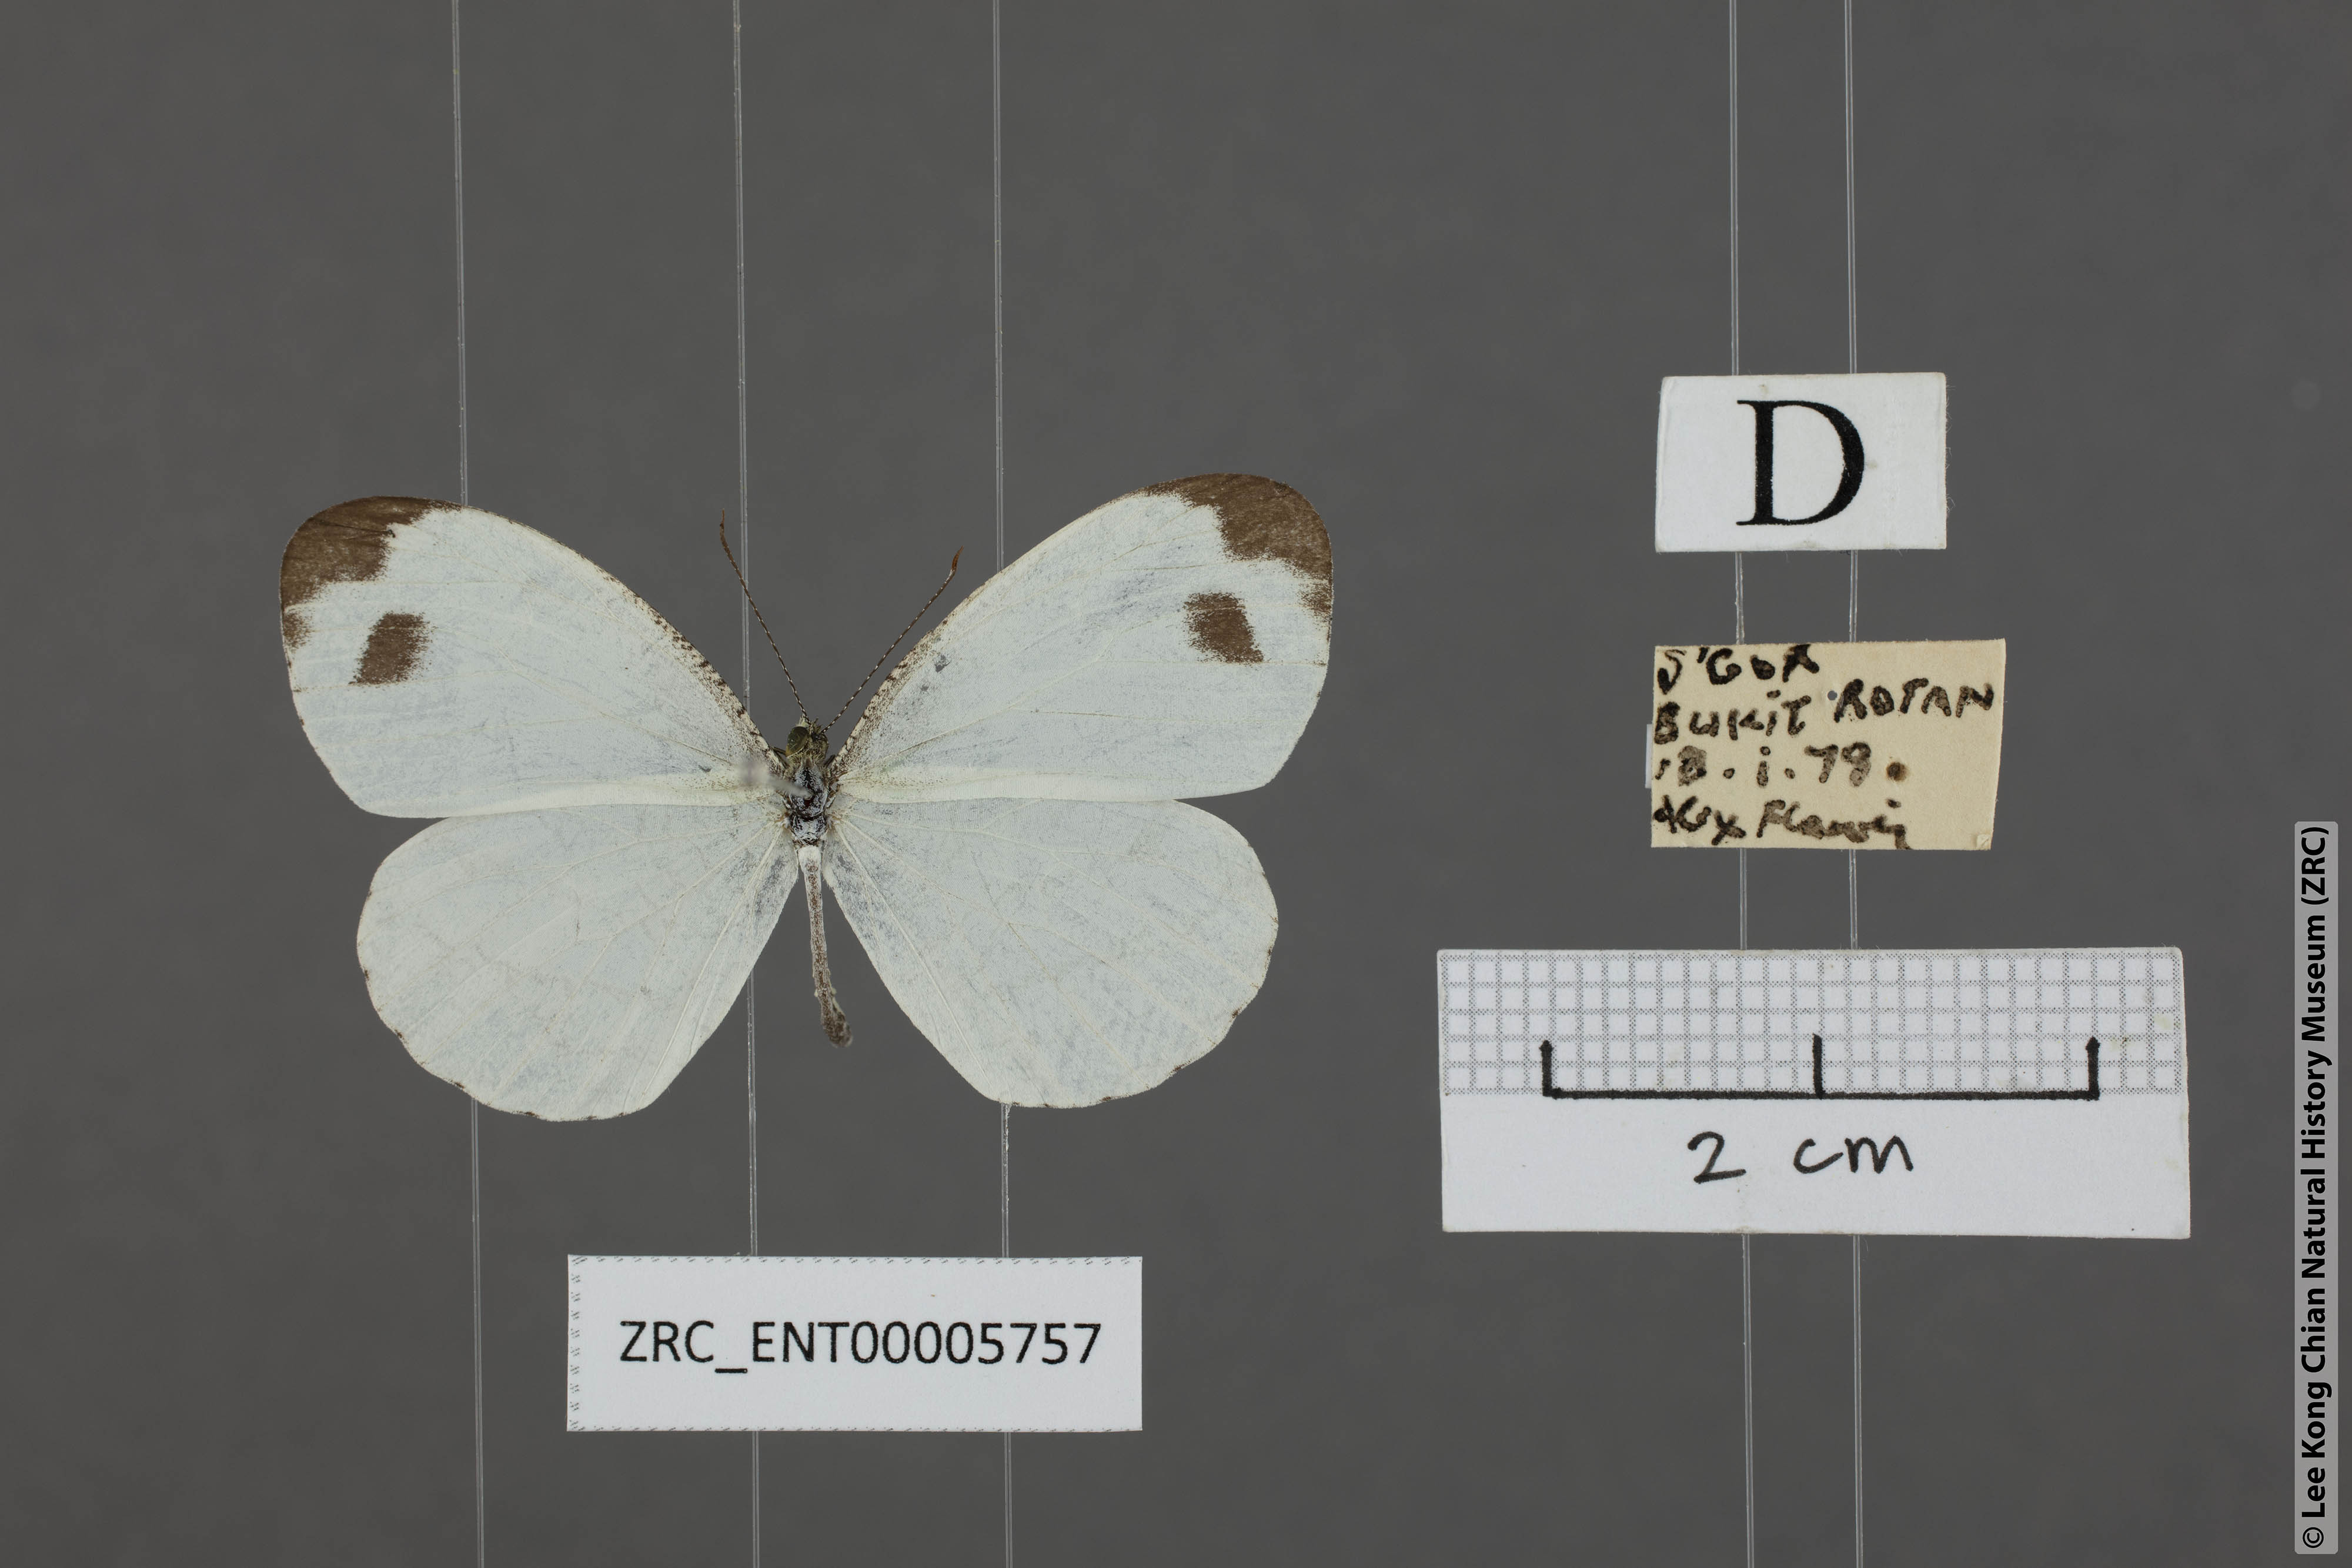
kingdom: Animalia
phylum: Arthropoda
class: Insecta
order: Lepidoptera
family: Pieridae
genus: Leptosia
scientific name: Leptosia nina
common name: Psyche
